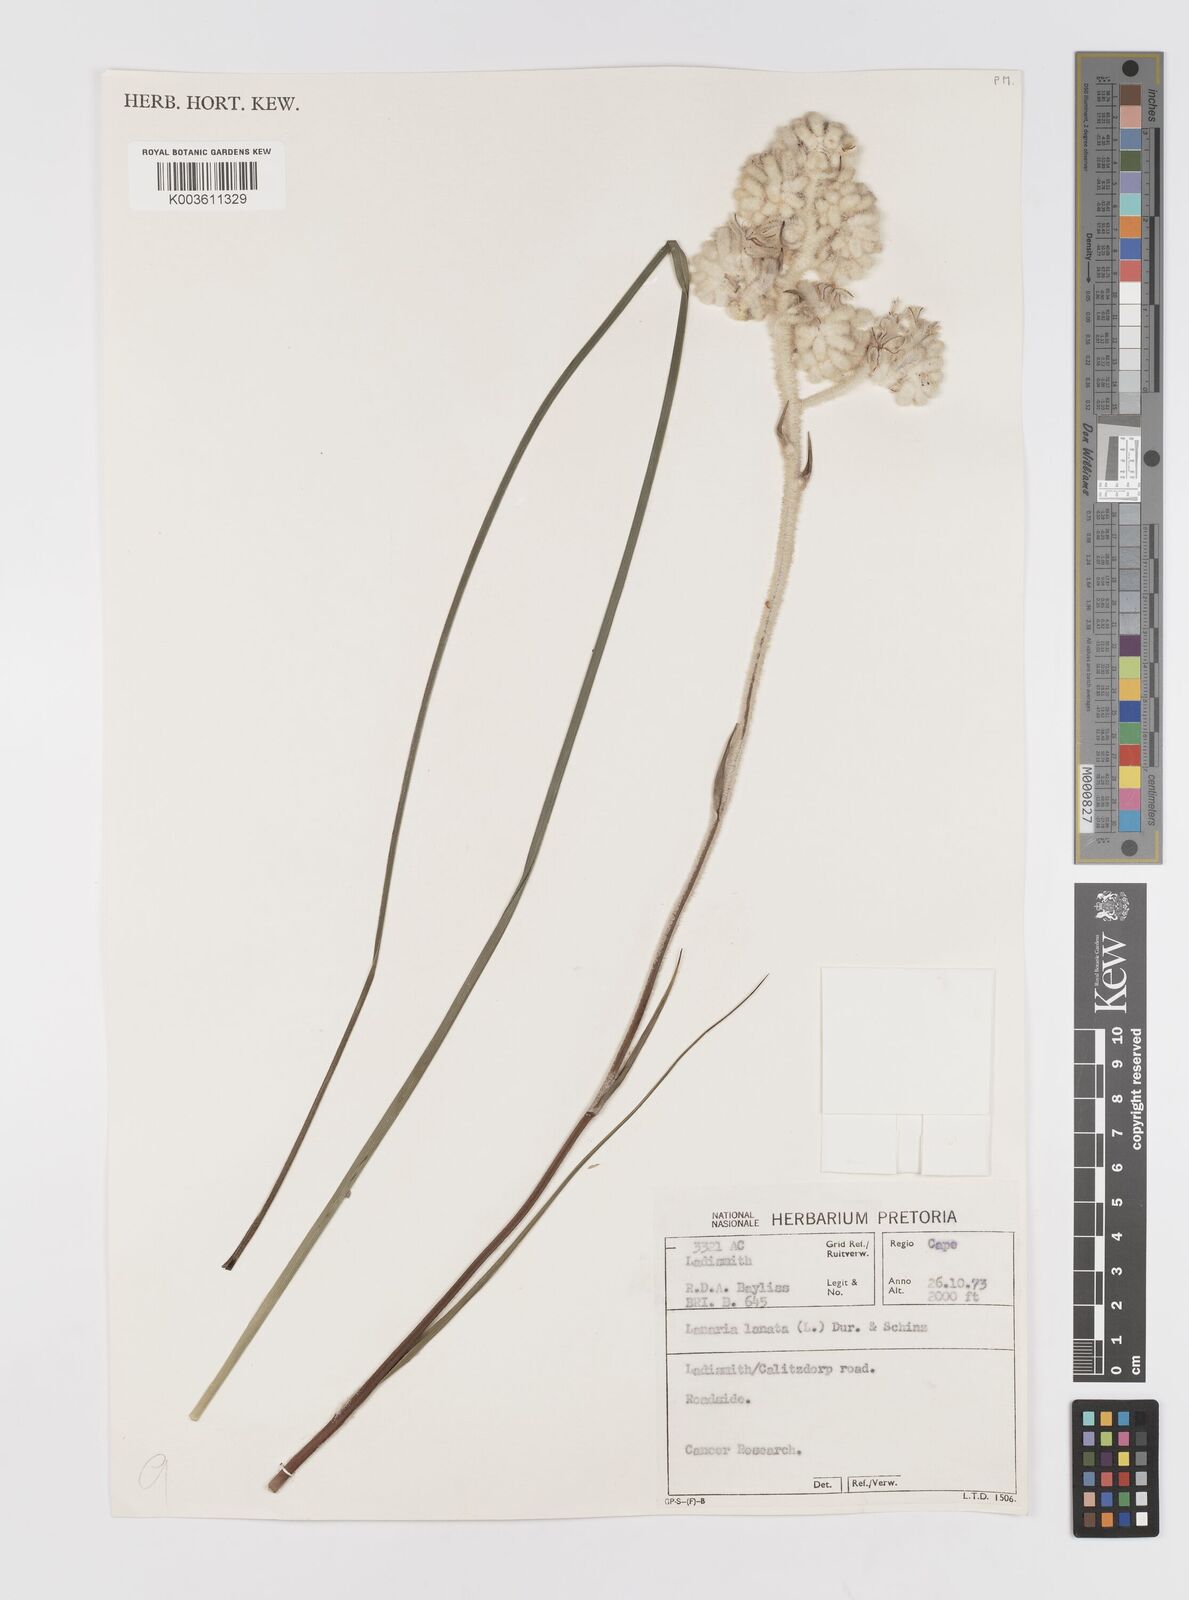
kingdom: Plantae
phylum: Tracheophyta
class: Liliopsida
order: Asparagales
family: Lanariaceae
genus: Lanaria
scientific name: Lanaria lanata
